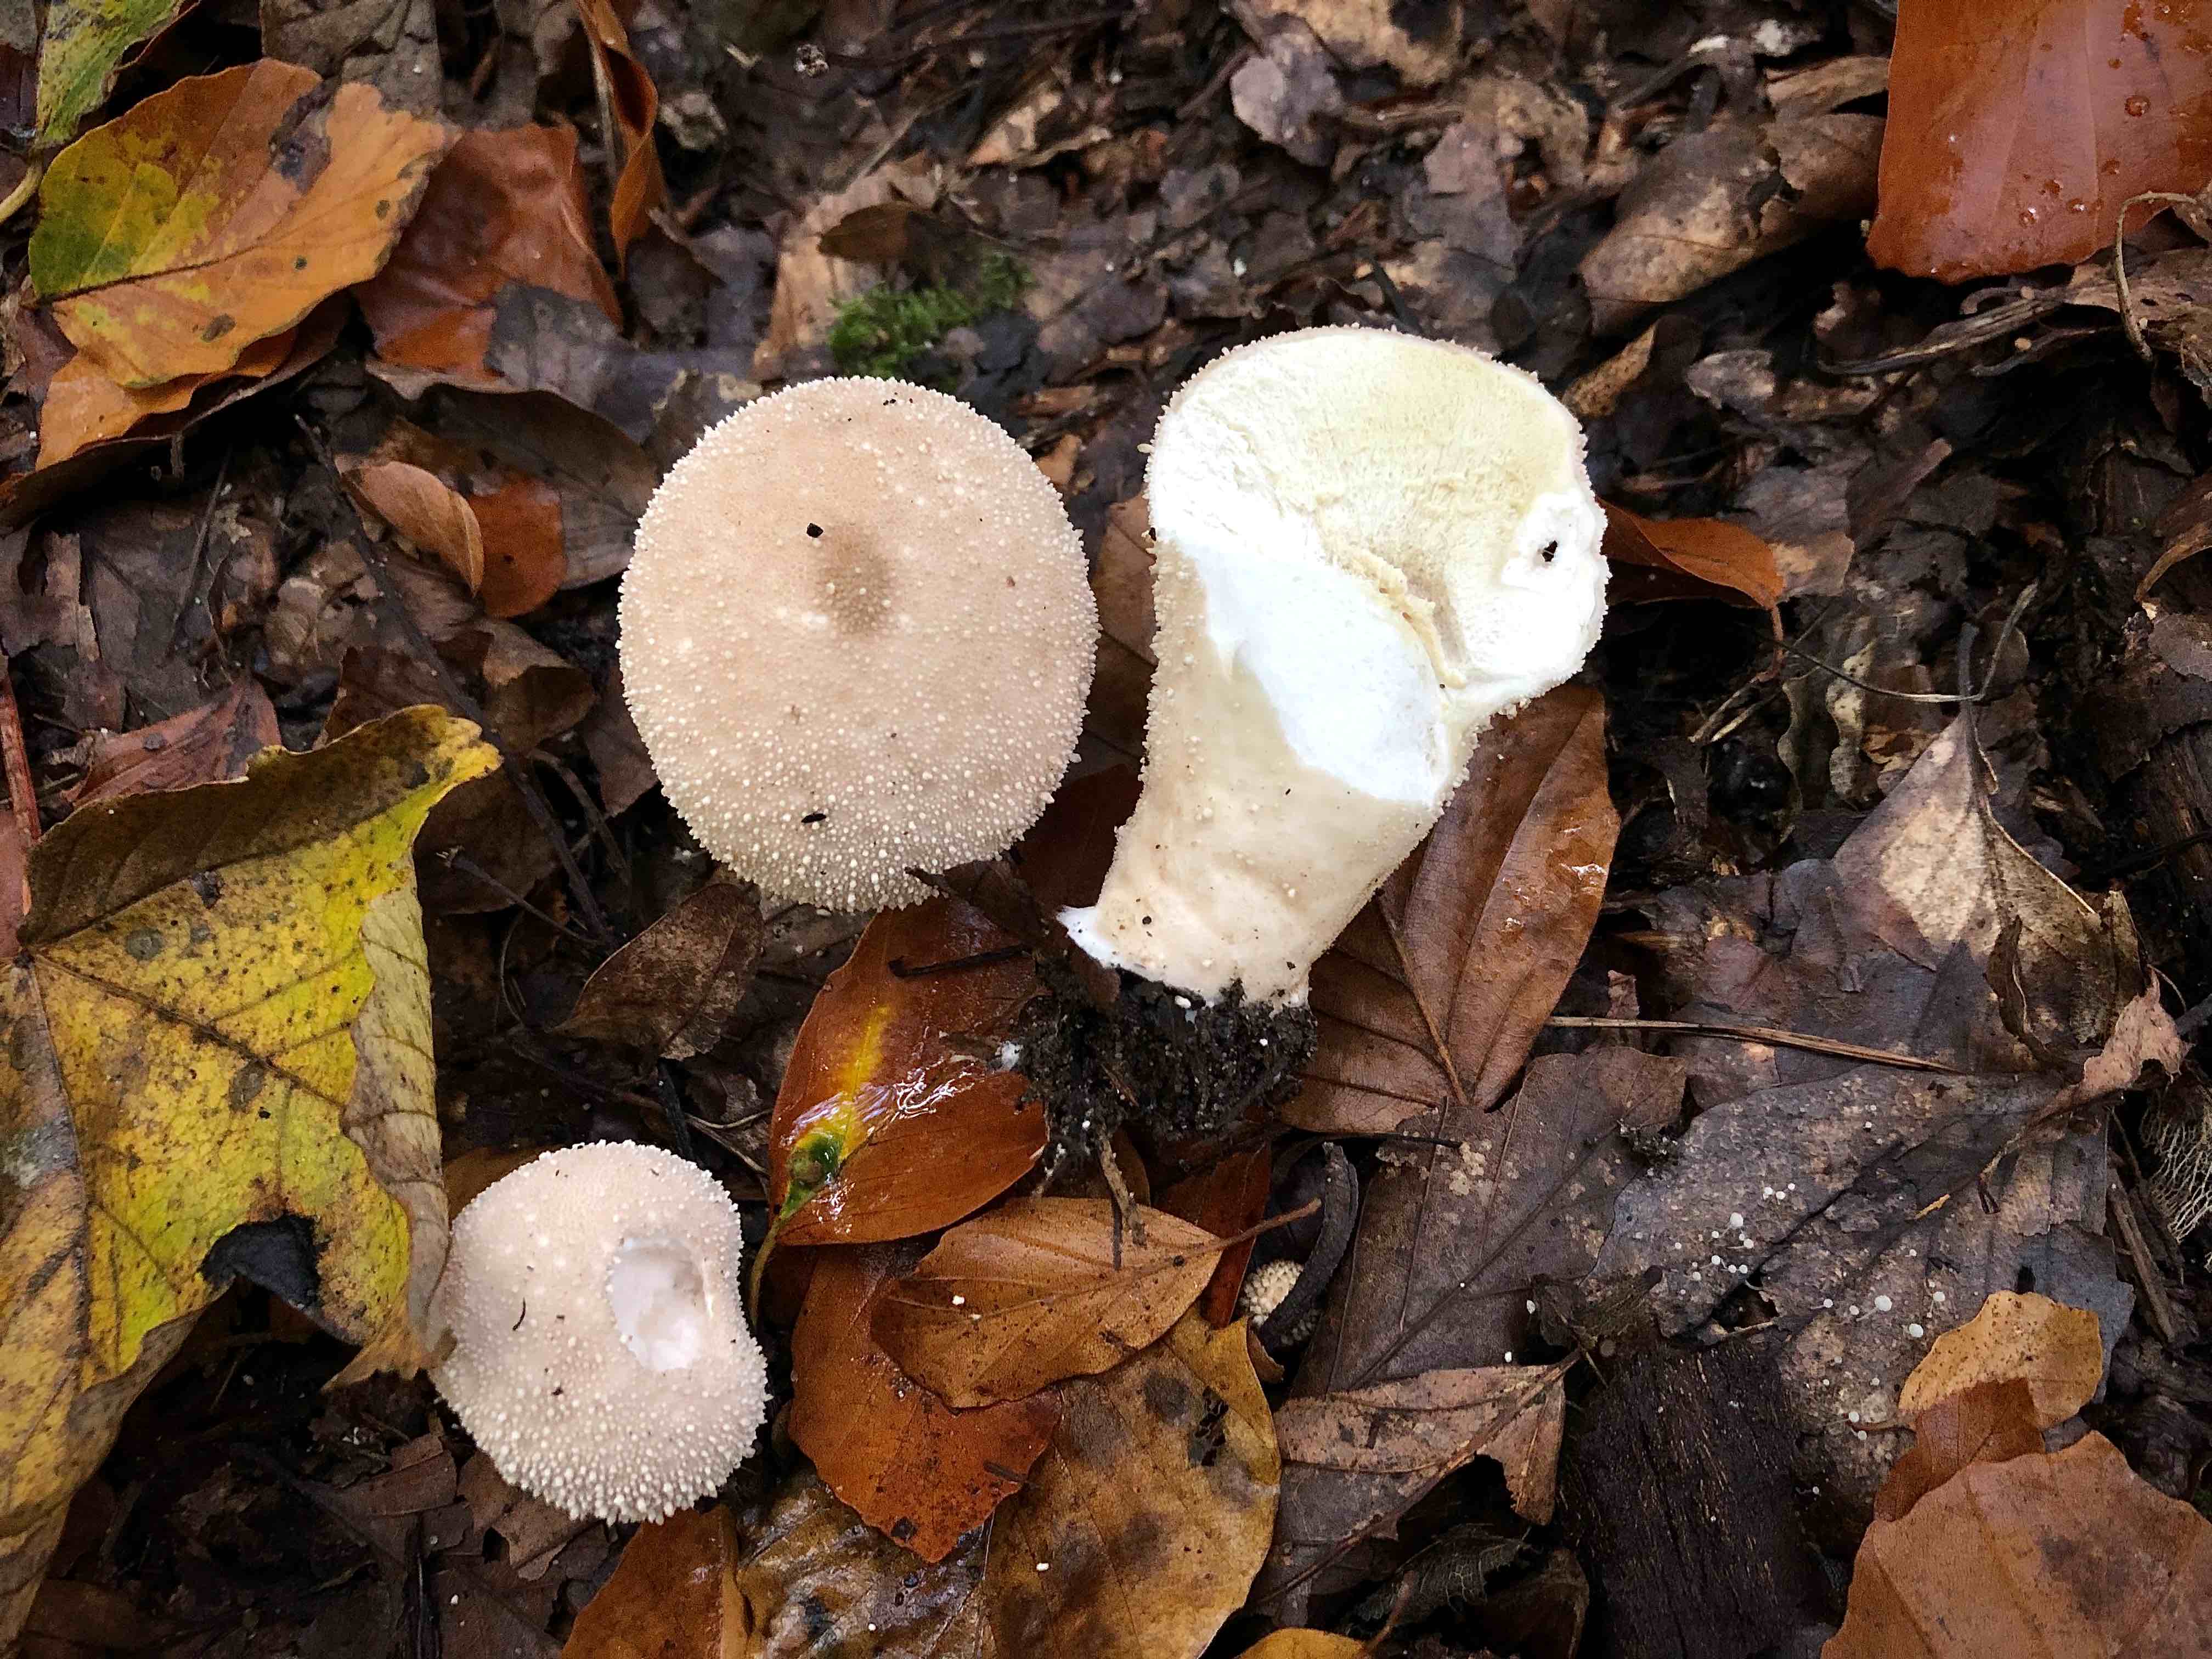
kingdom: Fungi
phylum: Basidiomycota
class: Agaricomycetes
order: Agaricales
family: Lycoperdaceae
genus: Lycoperdon
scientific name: Lycoperdon perlatum
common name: krystal-støvbold
